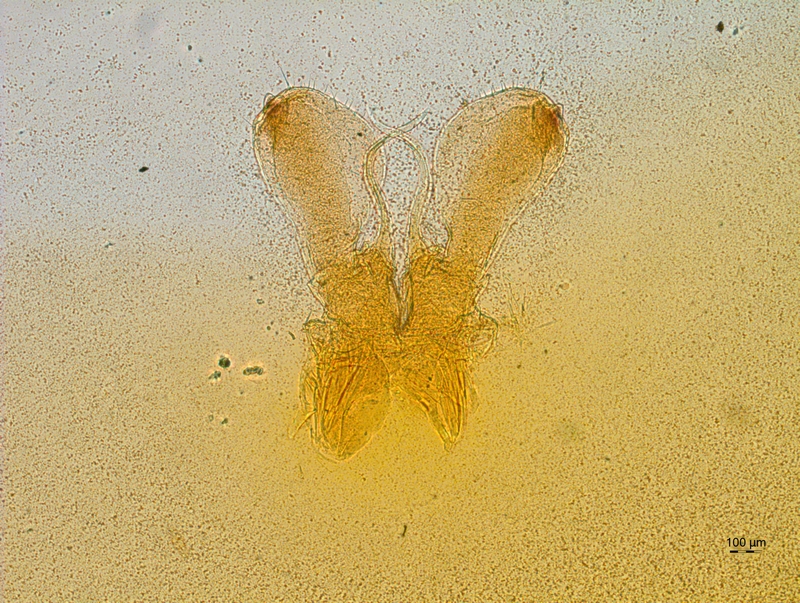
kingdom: Animalia
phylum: Arthropoda
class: Diplopoda
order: Chordeumatida
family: Chordeumatidae
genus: Orthochordeumella
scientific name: Orthochordeumella fulva
